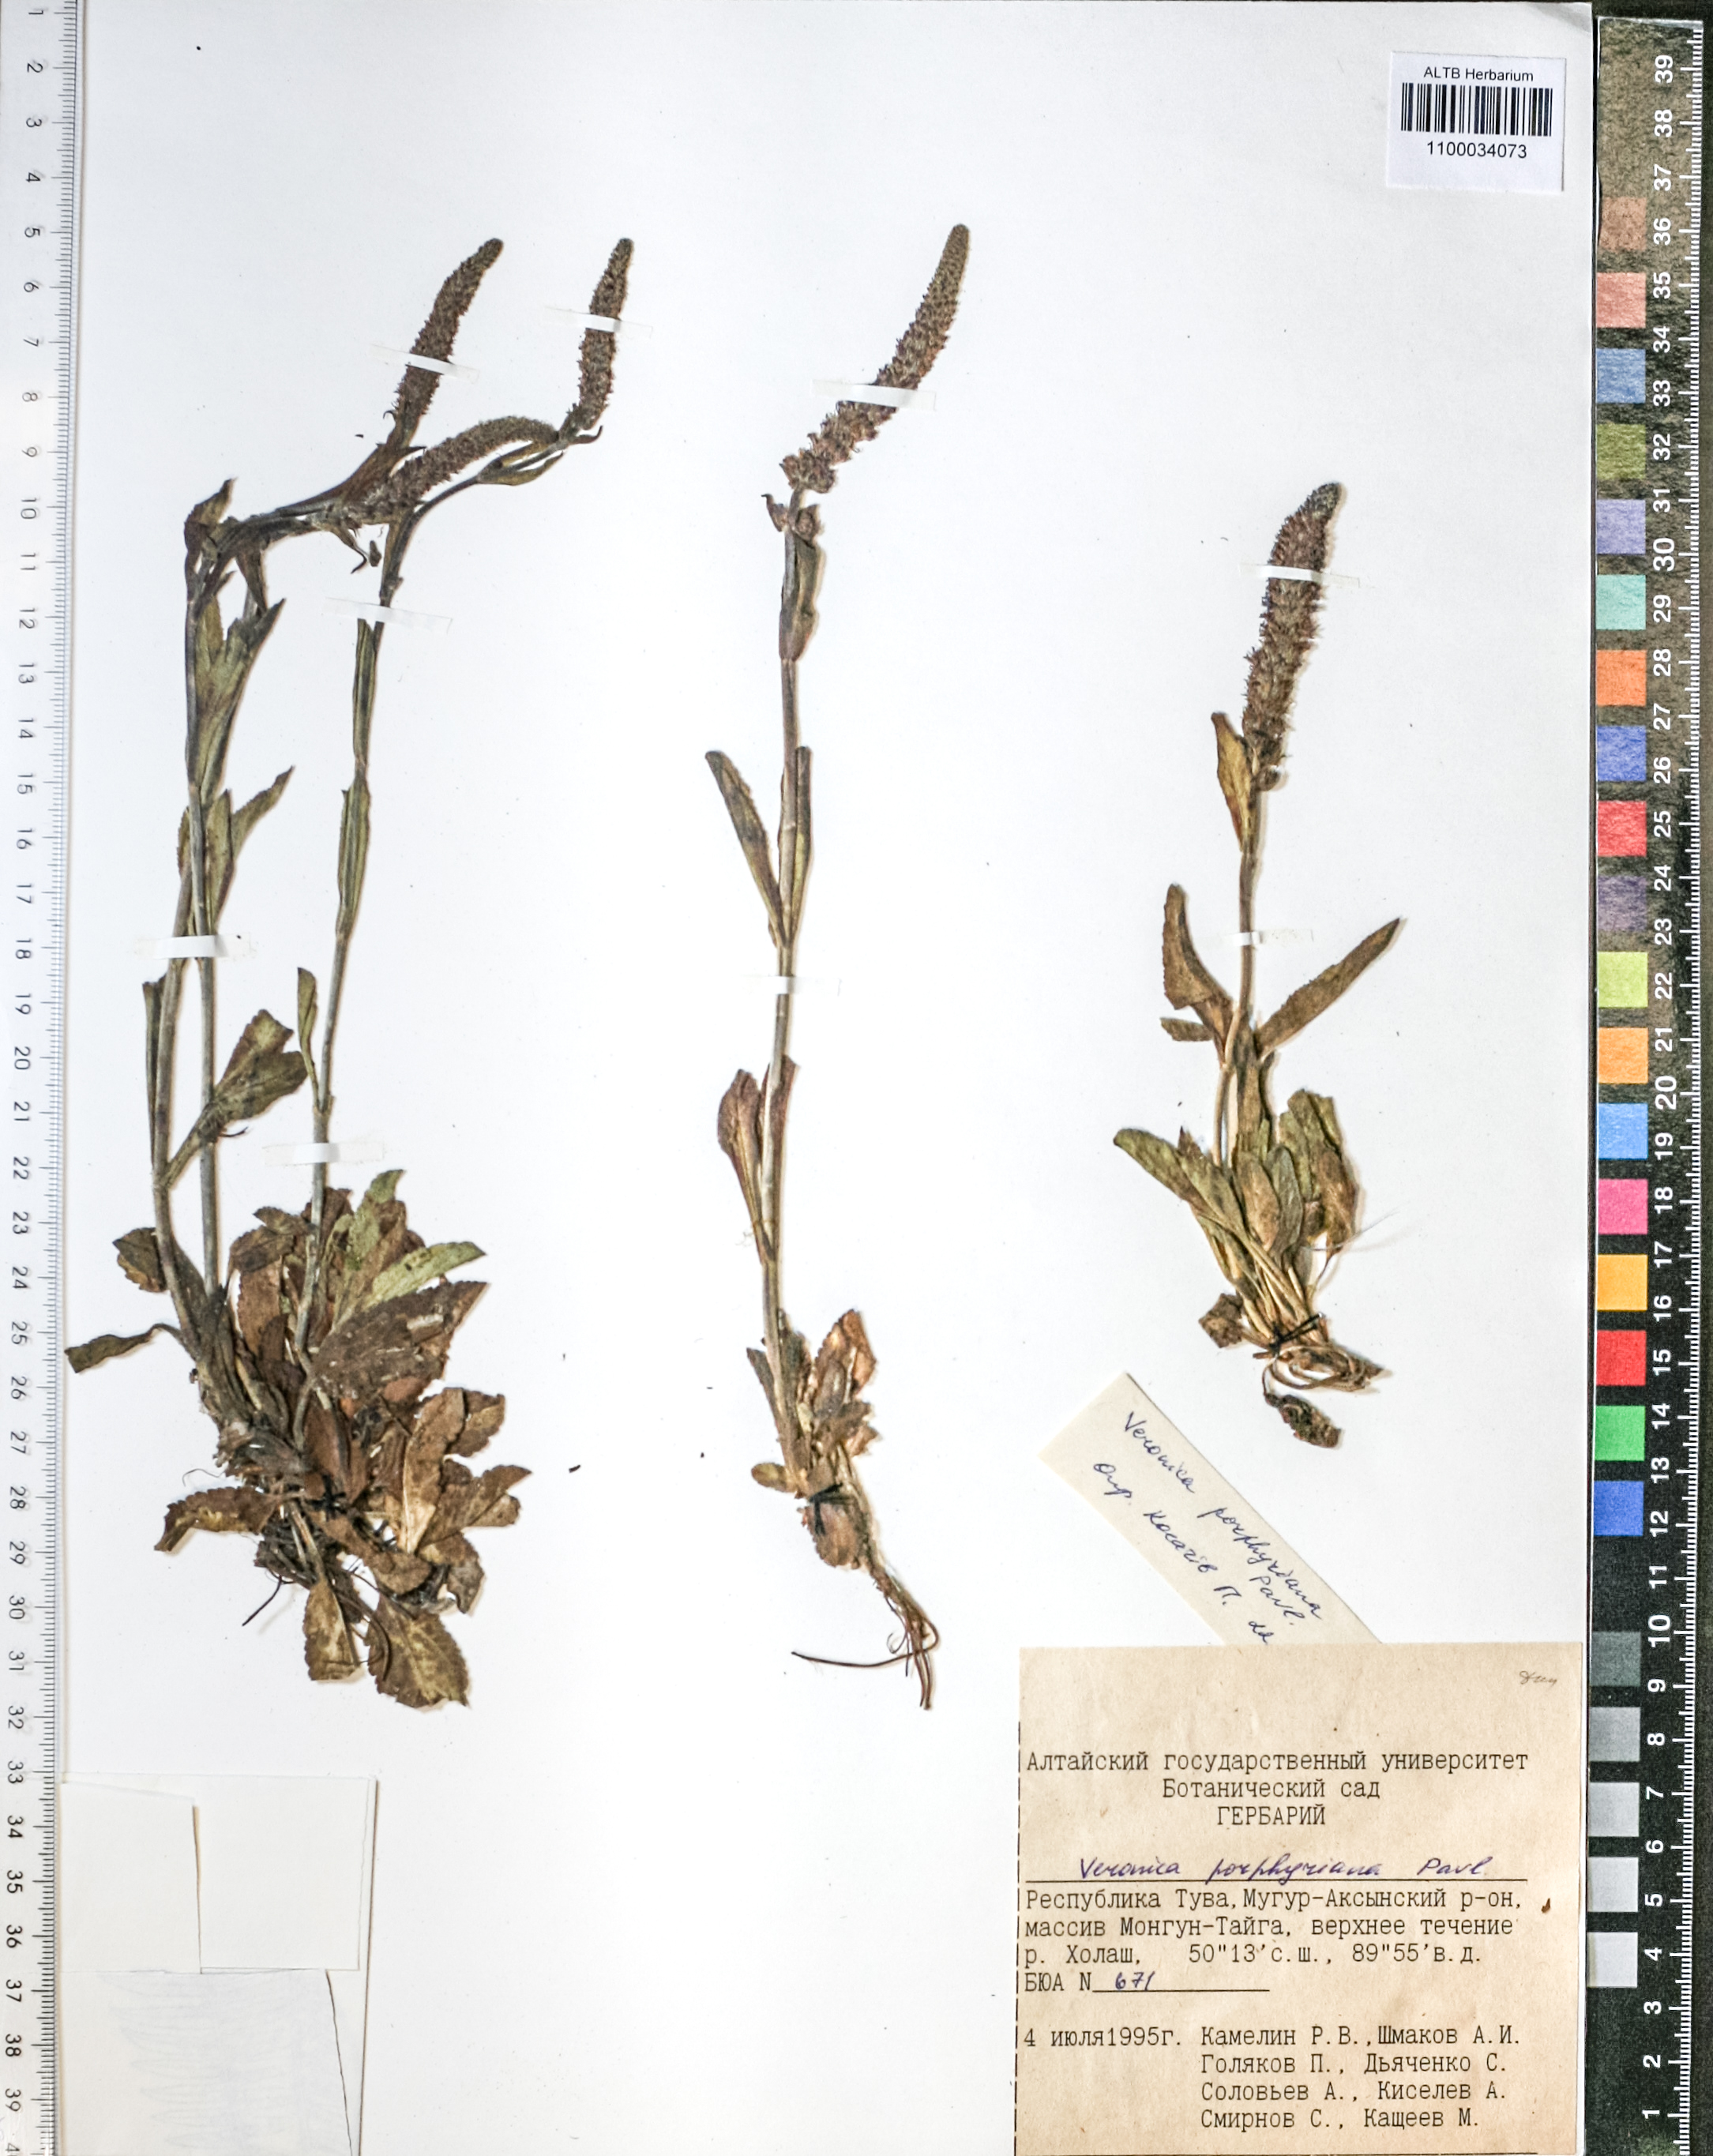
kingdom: Plantae
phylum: Tracheophyta
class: Magnoliopsida
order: Lamiales
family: Plantaginaceae
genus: Veronica
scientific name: Veronica porphyriana
